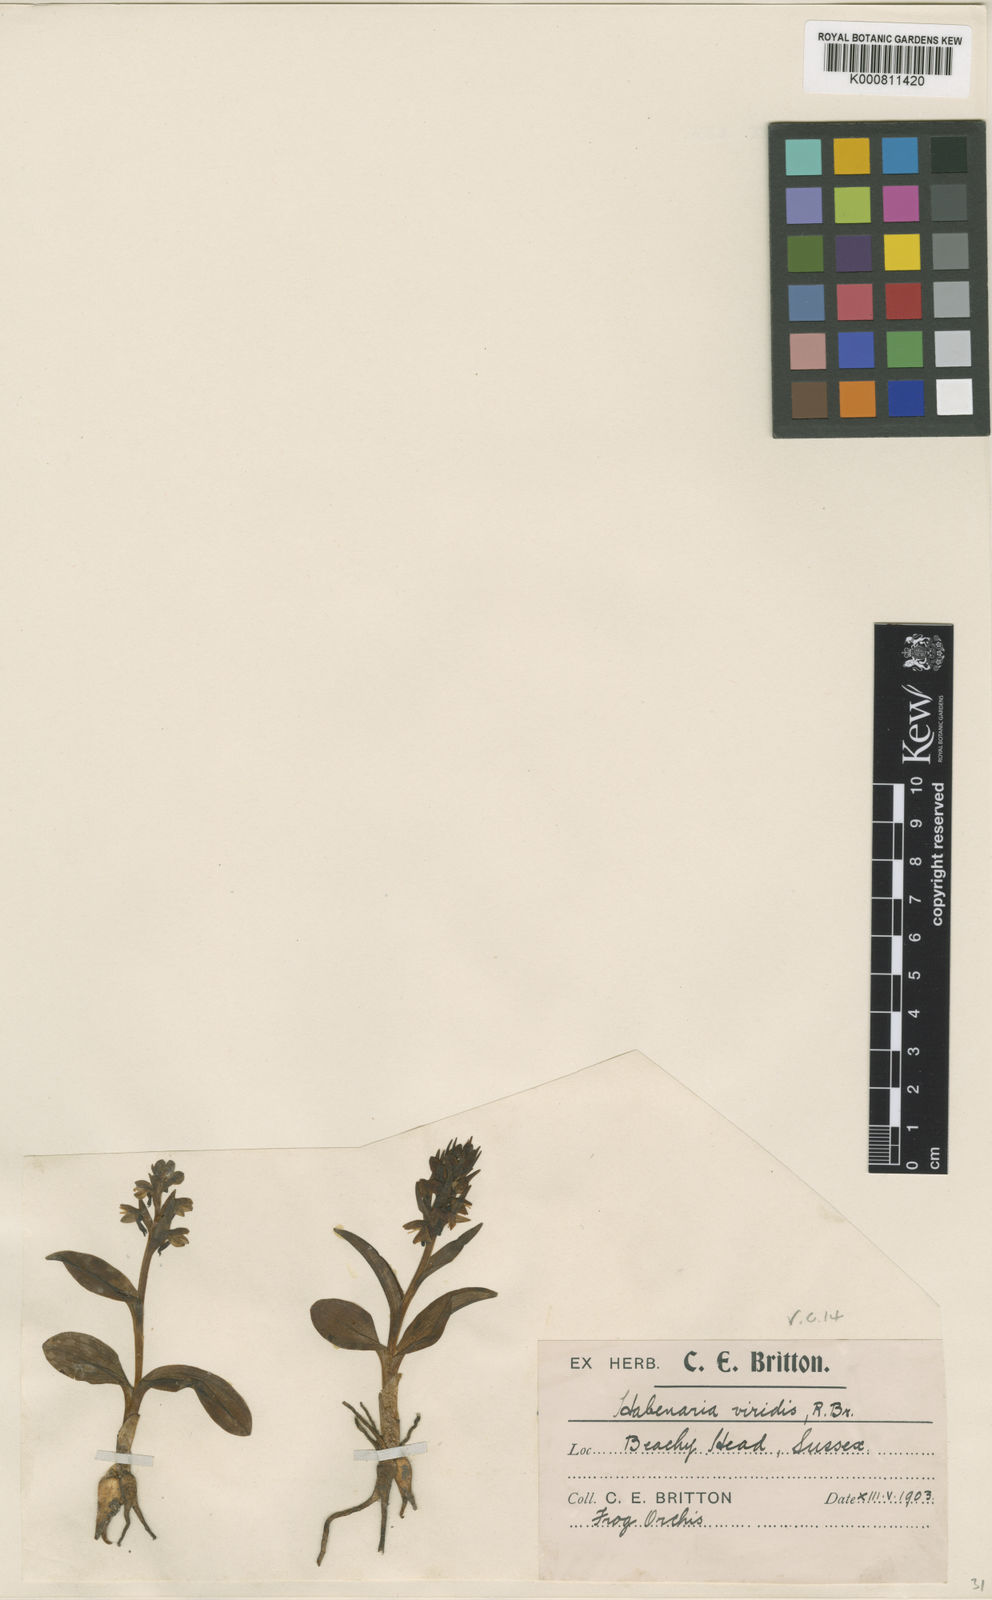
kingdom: Plantae
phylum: Tracheophyta
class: Liliopsida
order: Asparagales
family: Orchidaceae
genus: Dactylorhiza
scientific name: Dactylorhiza viridis
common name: Longbract frog orchid
